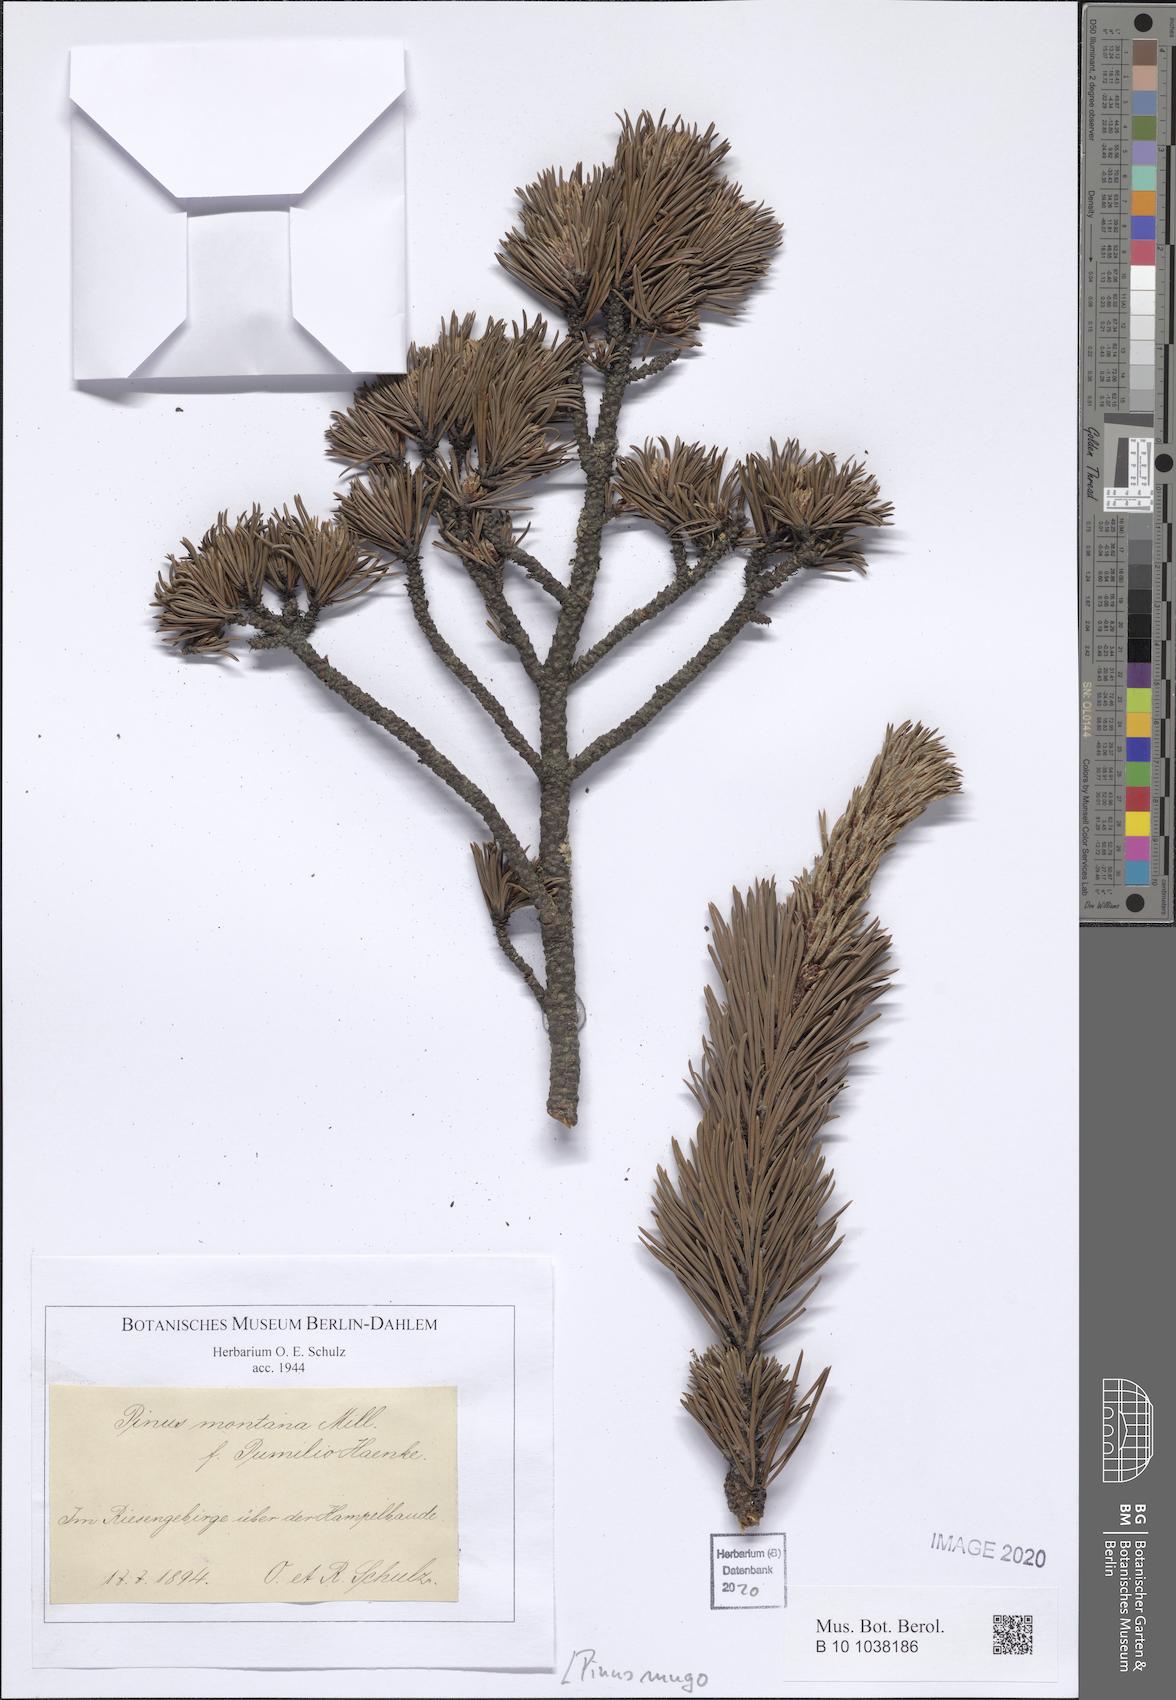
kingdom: Plantae
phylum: Tracheophyta
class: Pinopsida
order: Pinales
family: Pinaceae
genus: Pinus
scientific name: Pinus mugo
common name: Mugo pine
